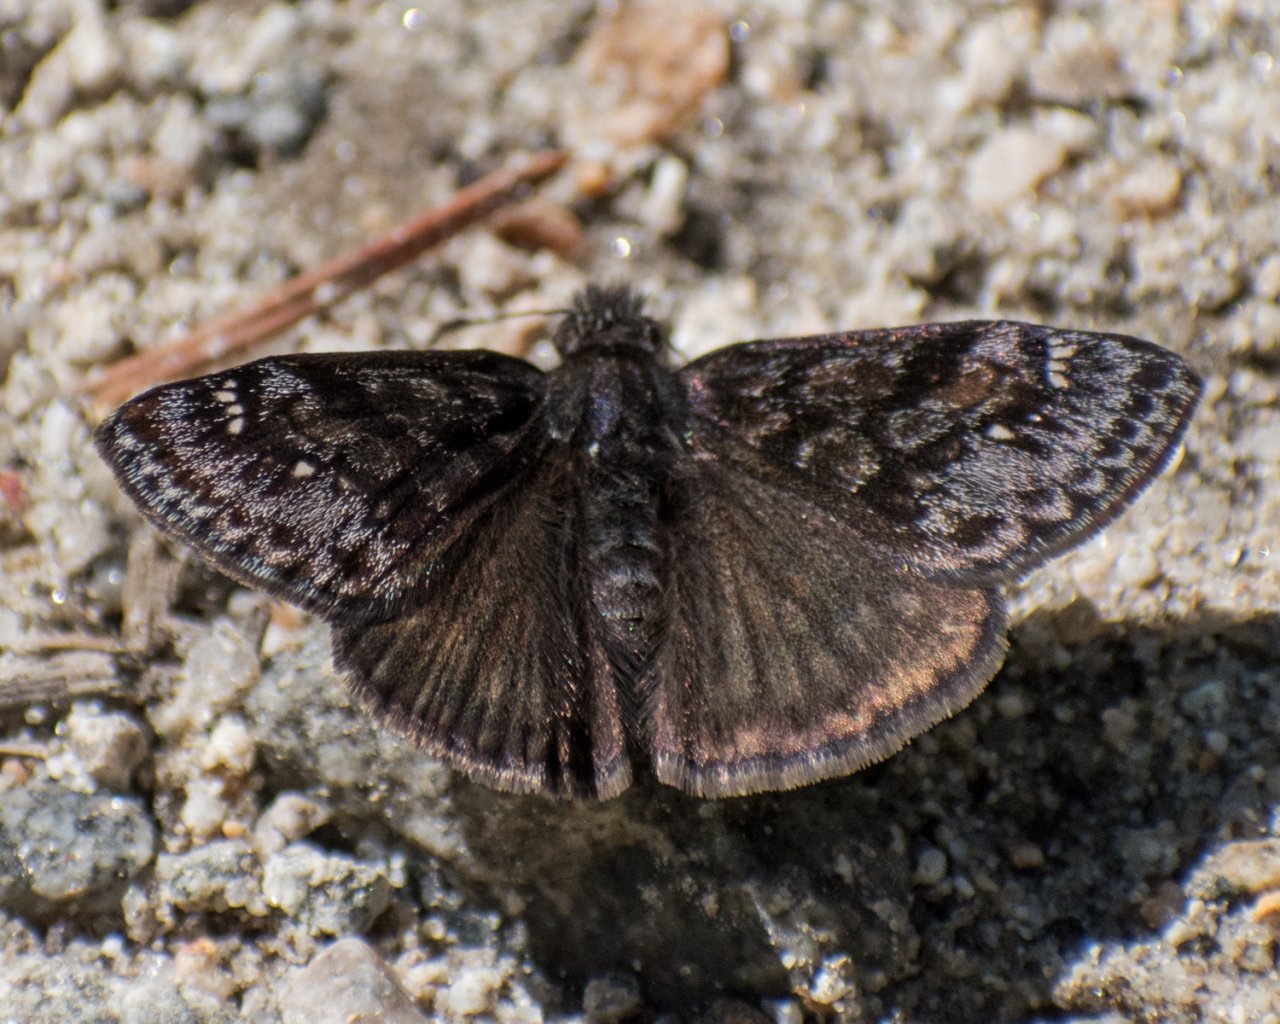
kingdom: Animalia
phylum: Arthropoda
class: Insecta
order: Lepidoptera
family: Hesperiidae
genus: Erynnis
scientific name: Erynnis pacuvius
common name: Pacuvius Duskywing
